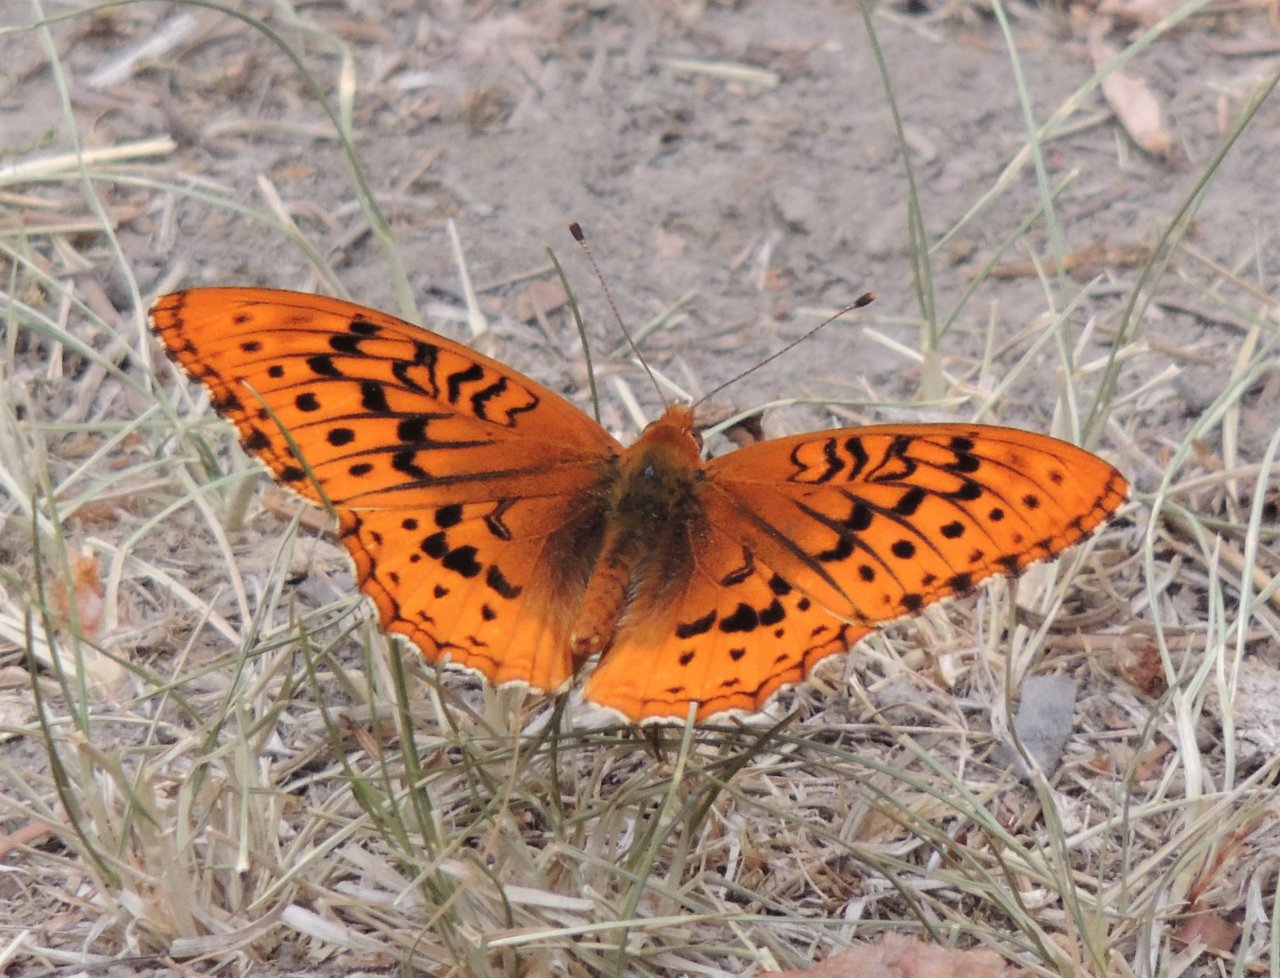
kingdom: Animalia
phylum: Arthropoda
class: Insecta
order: Lepidoptera
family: Nymphalidae
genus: Speyeria
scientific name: Speyeria cybele
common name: Great Spangled Fritillary
